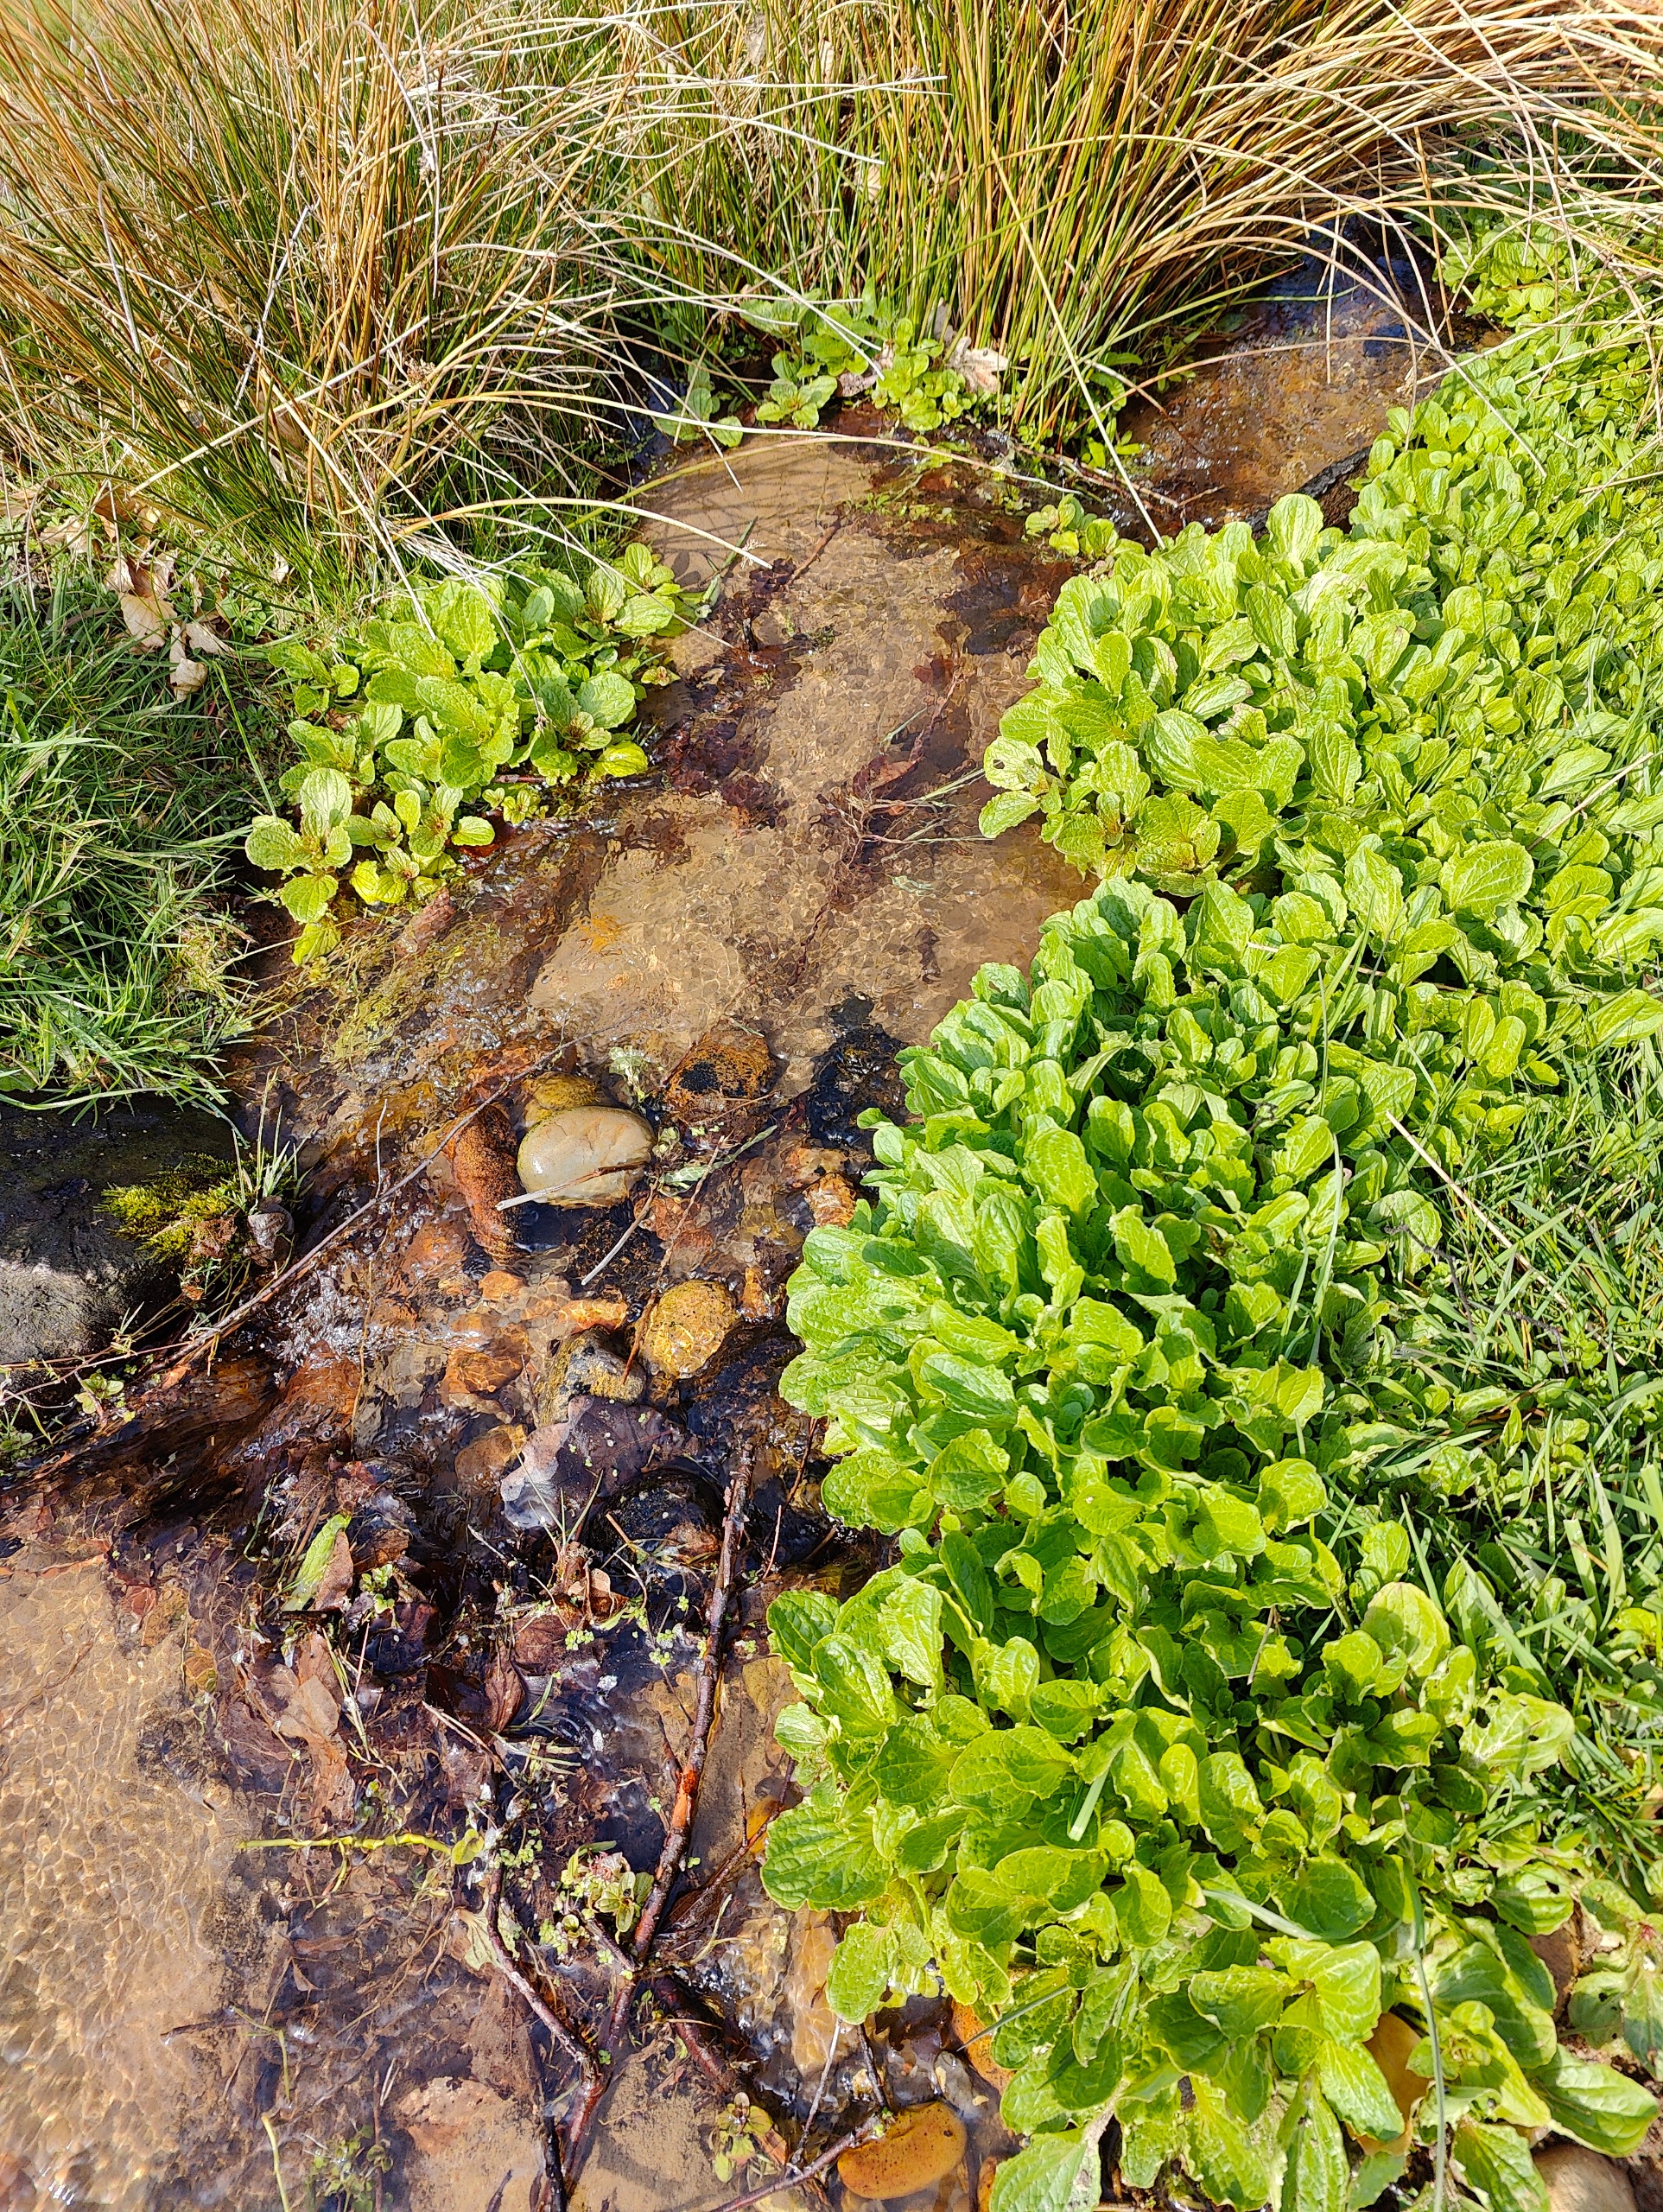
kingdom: Plantae
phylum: Tracheophyta
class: Magnoliopsida
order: Lamiales
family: Phrymaceae
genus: Erythranthe
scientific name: Erythranthe guttata
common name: Abeblomst
